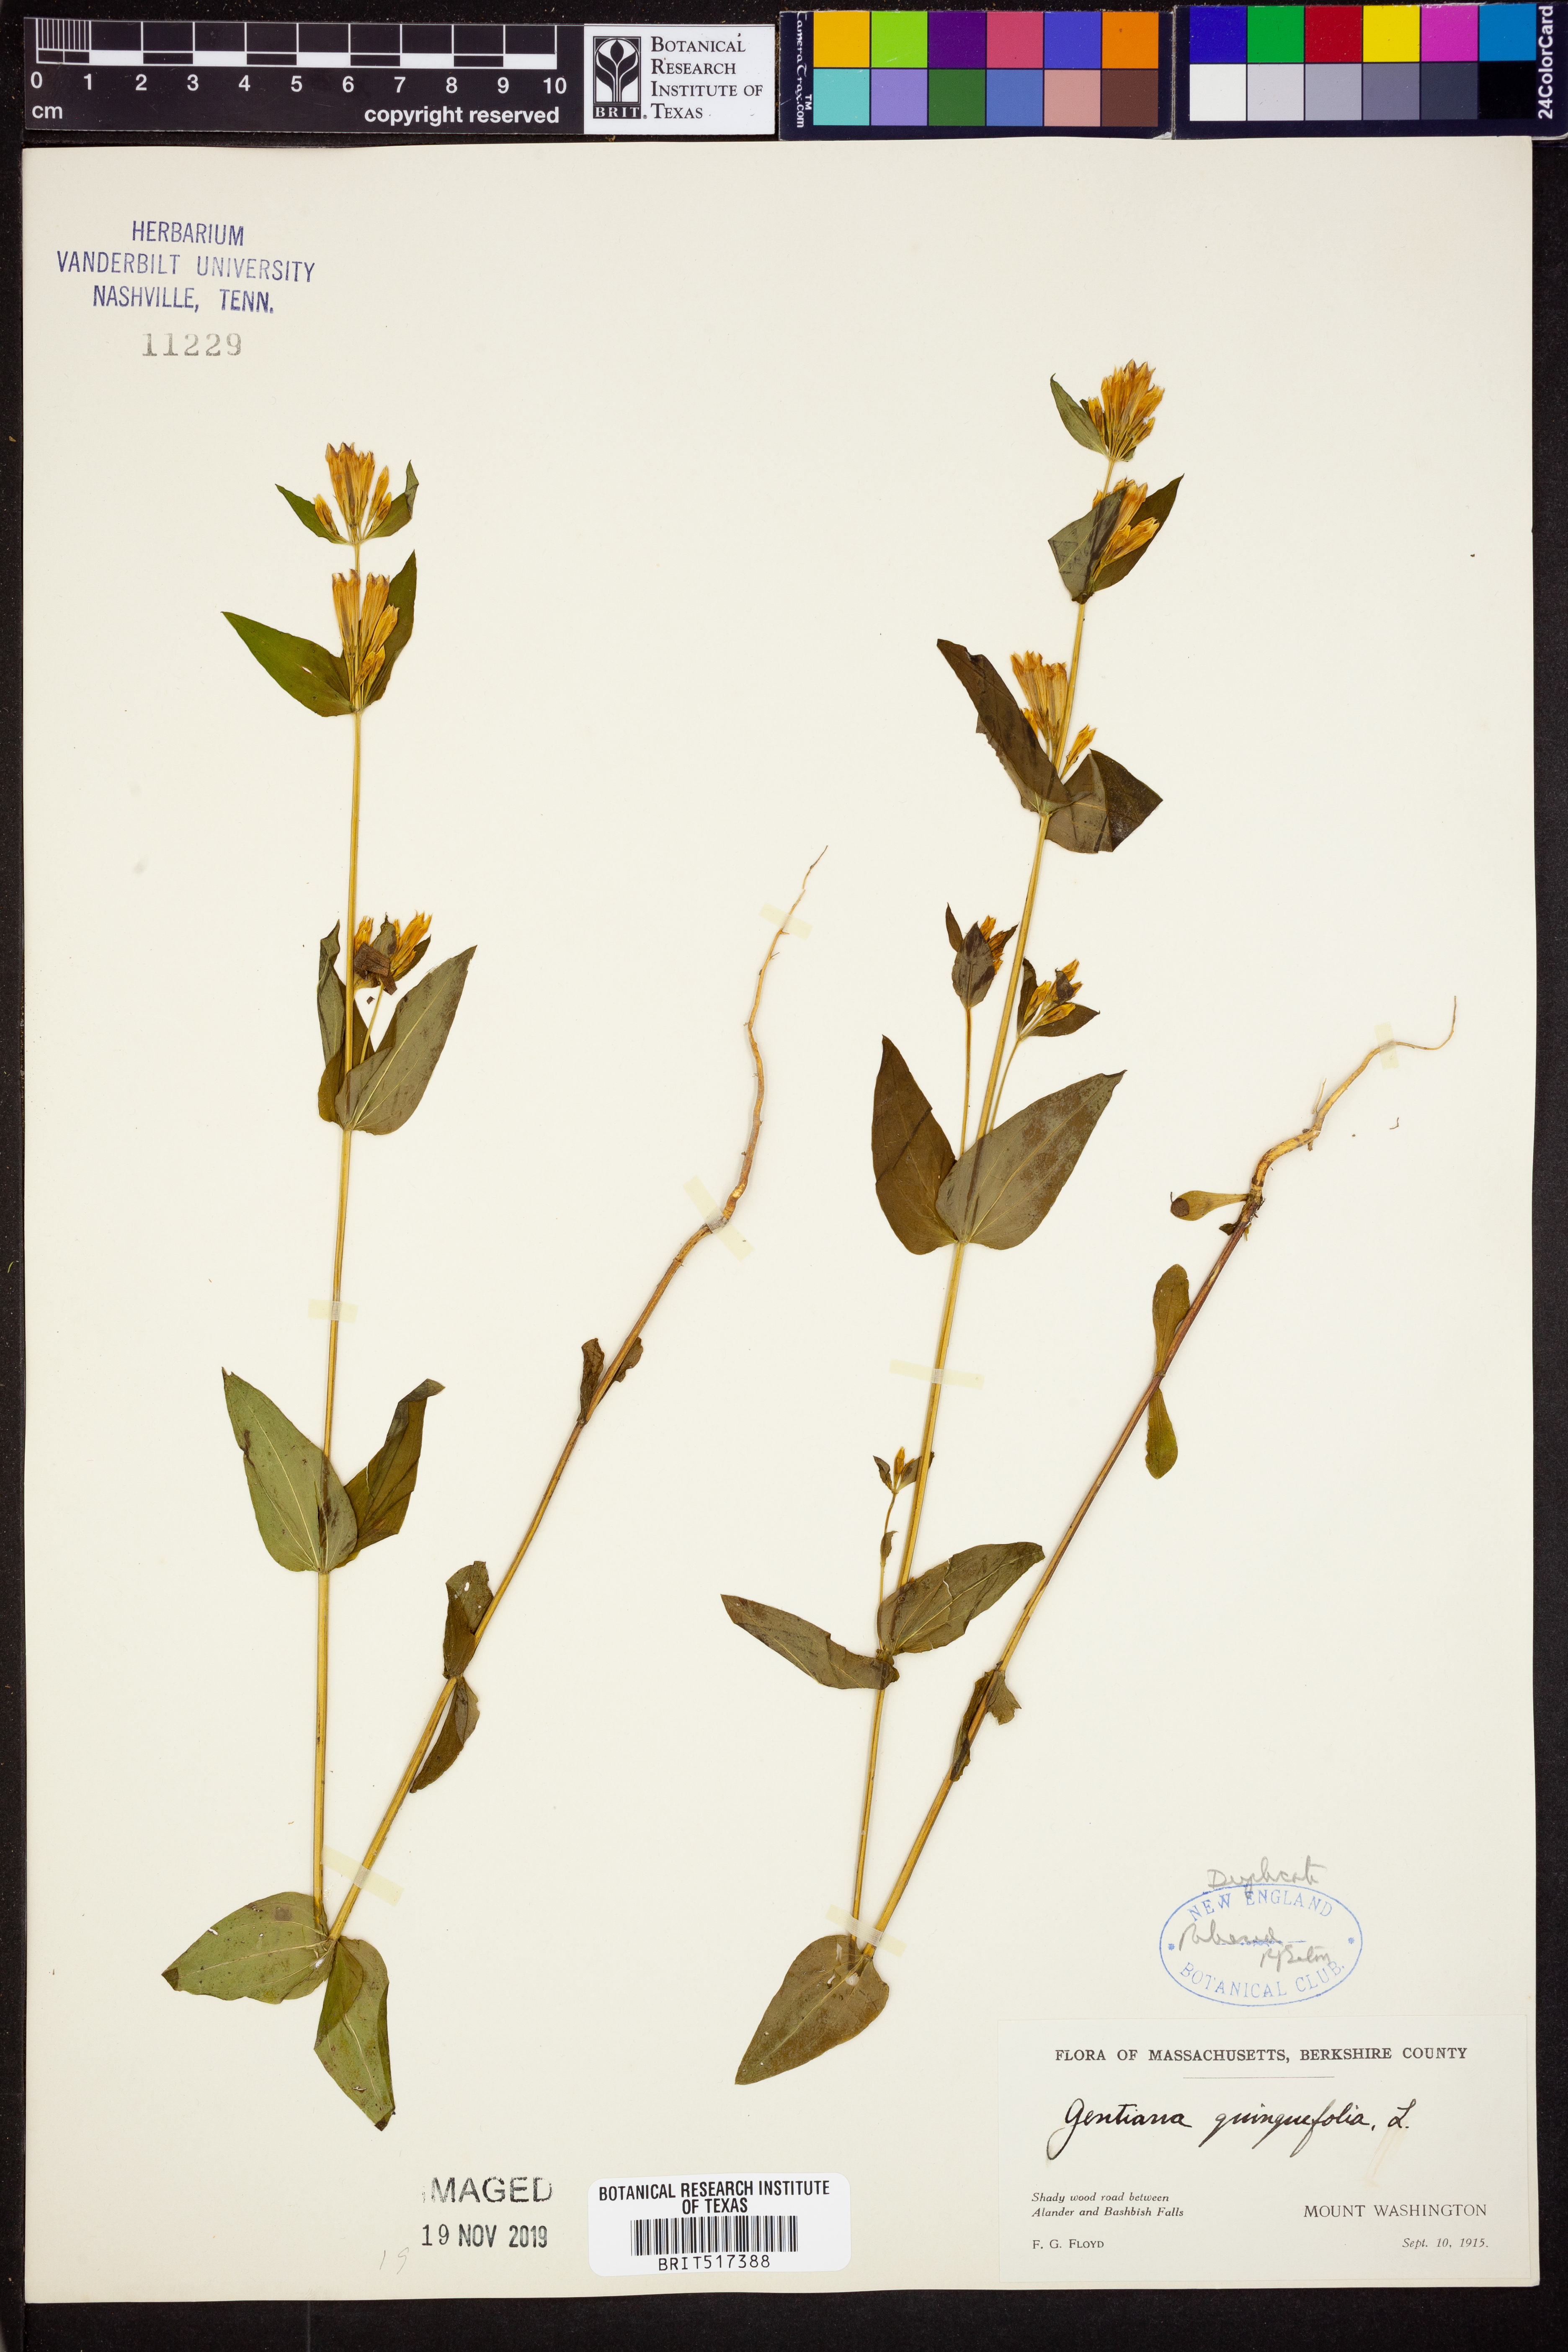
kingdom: Plantae
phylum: Tracheophyta
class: Magnoliopsida
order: Gentianales
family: Gentianaceae
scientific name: Gentianaceae
